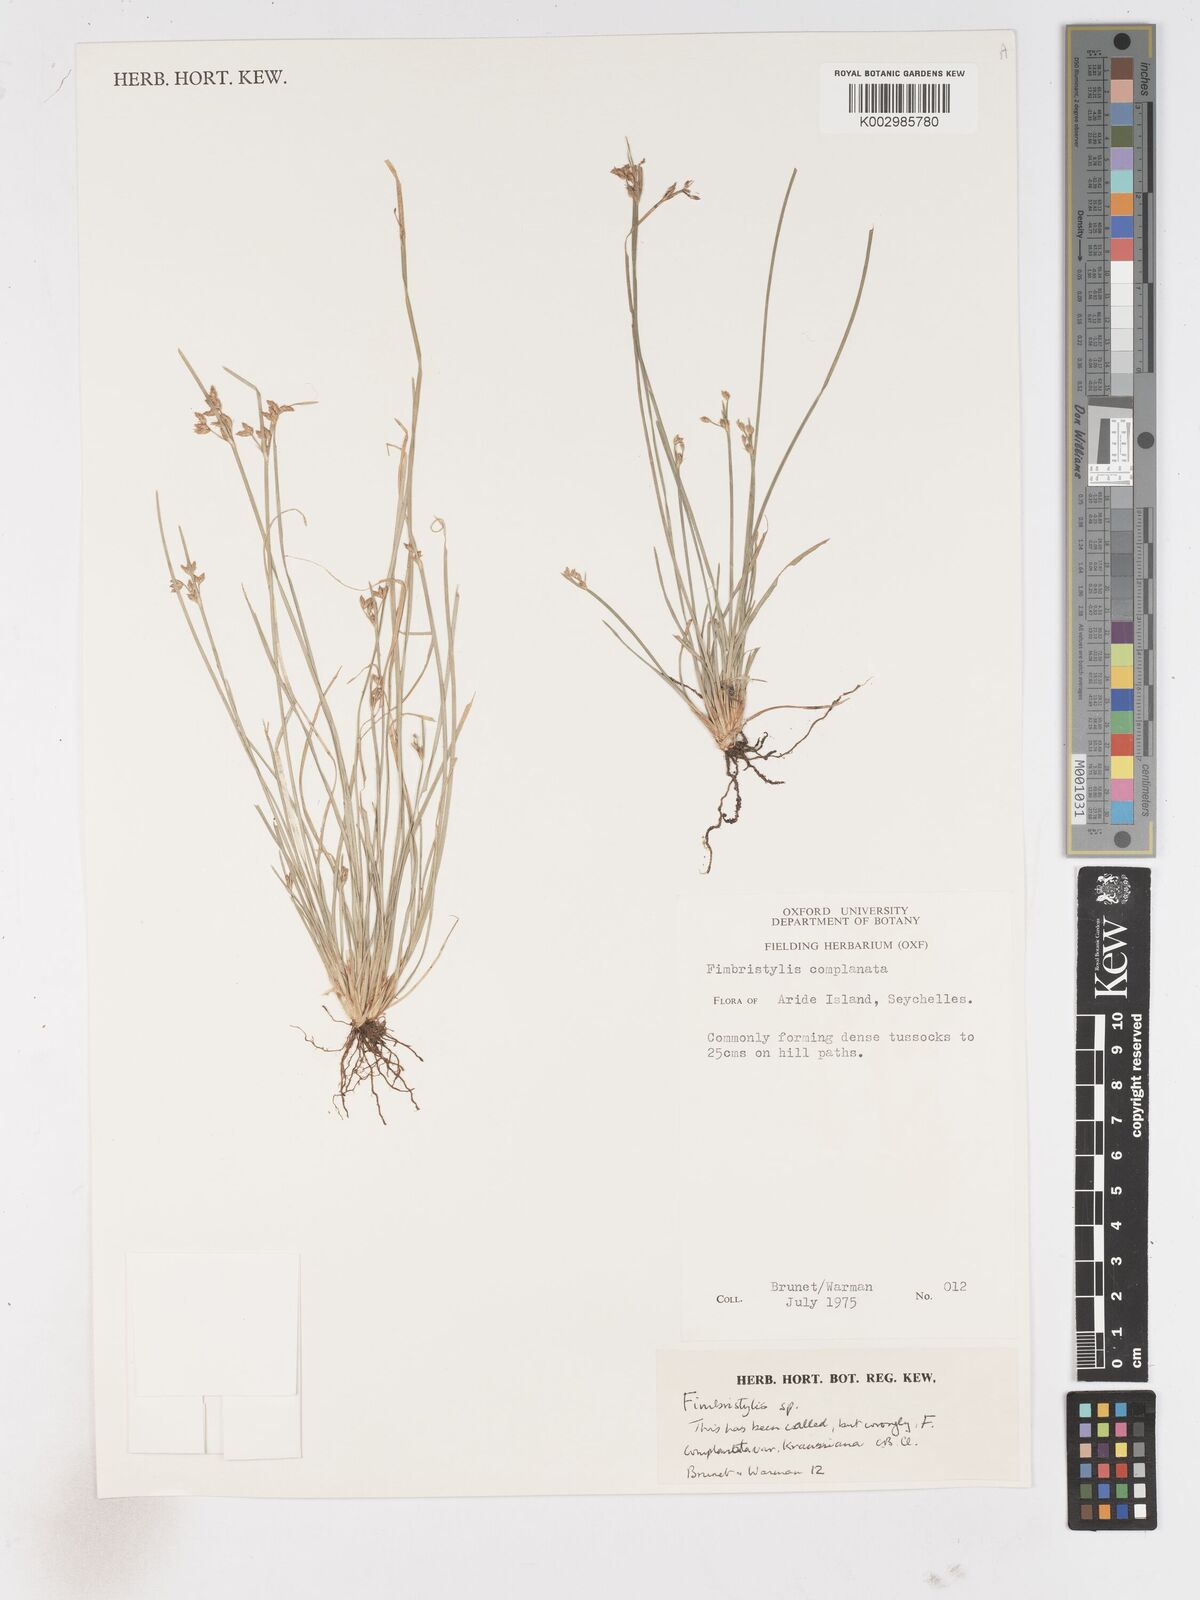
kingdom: Plantae
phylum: Tracheophyta
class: Liliopsida
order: Poales
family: Cyperaceae
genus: Fimbristylis
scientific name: Fimbristylis
